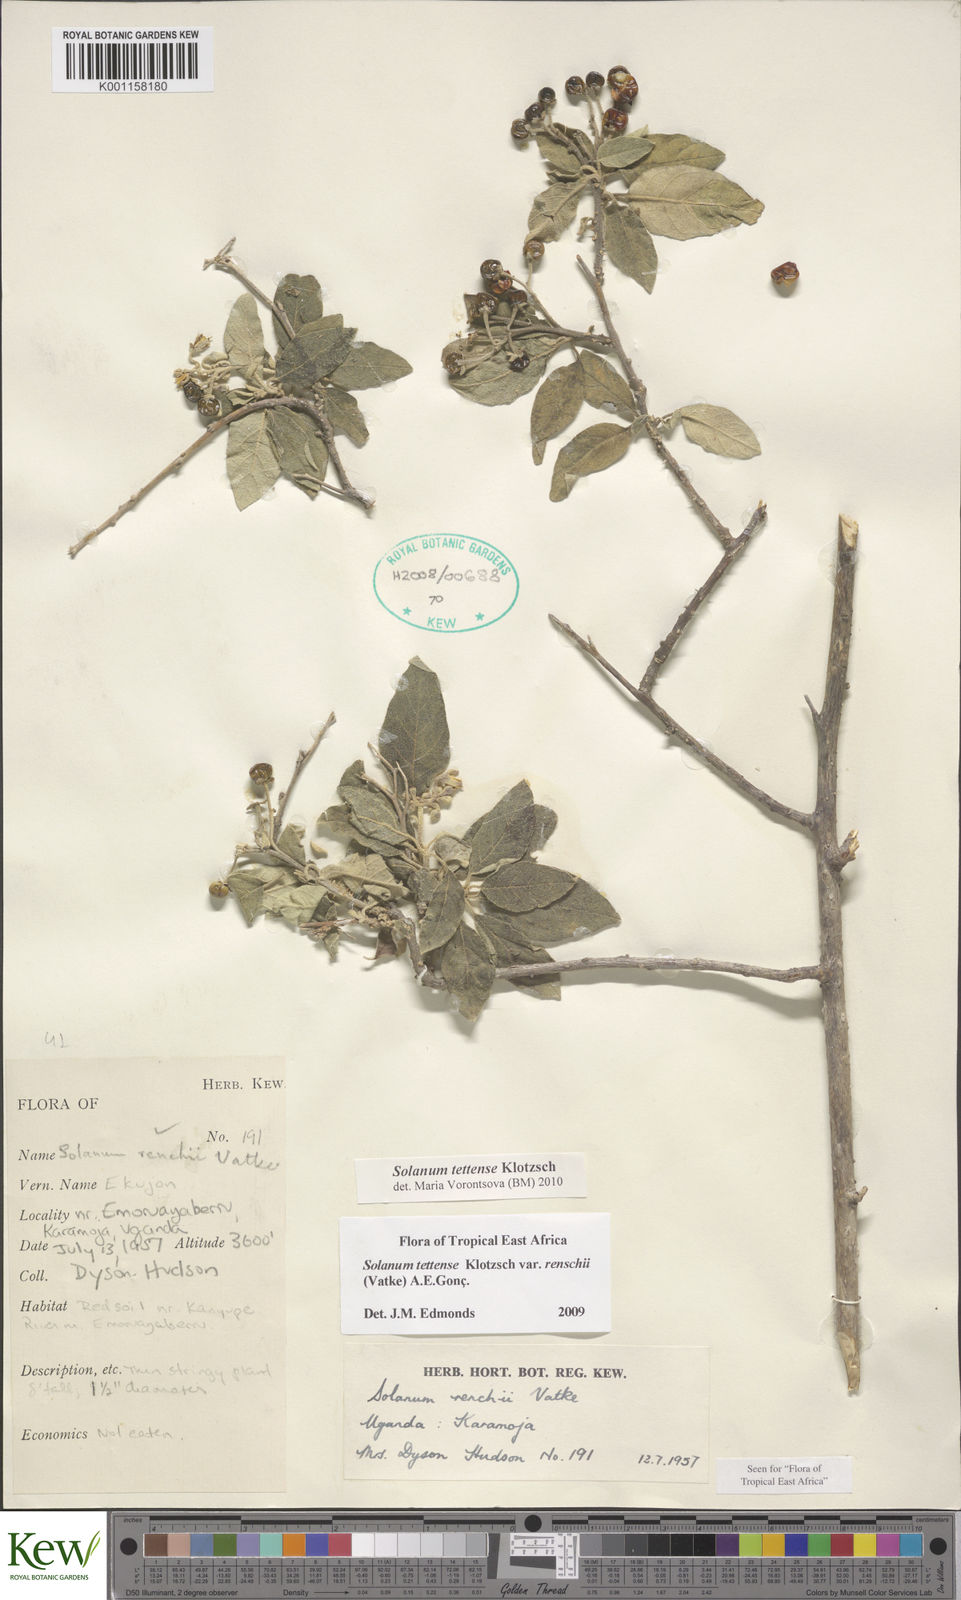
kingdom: Plantae
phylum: Tracheophyta
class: Magnoliopsida
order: Solanales
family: Solanaceae
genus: Solanum
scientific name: Solanum tettense
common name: Mozambique bitter apple
